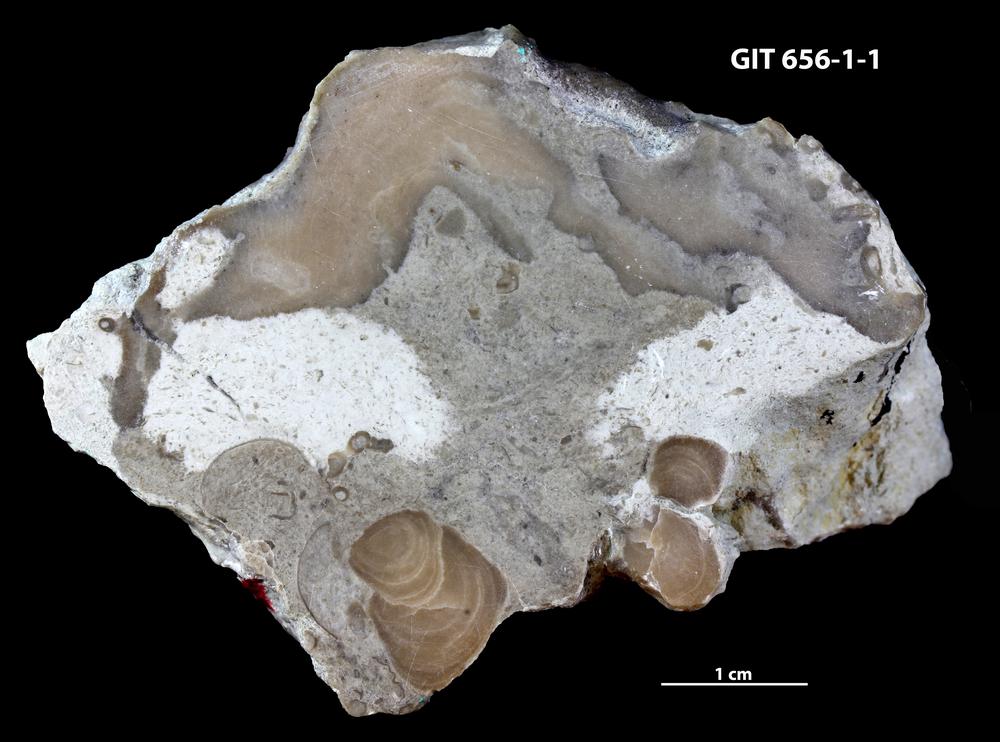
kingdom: Animalia
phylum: Porifera
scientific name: Porifera
